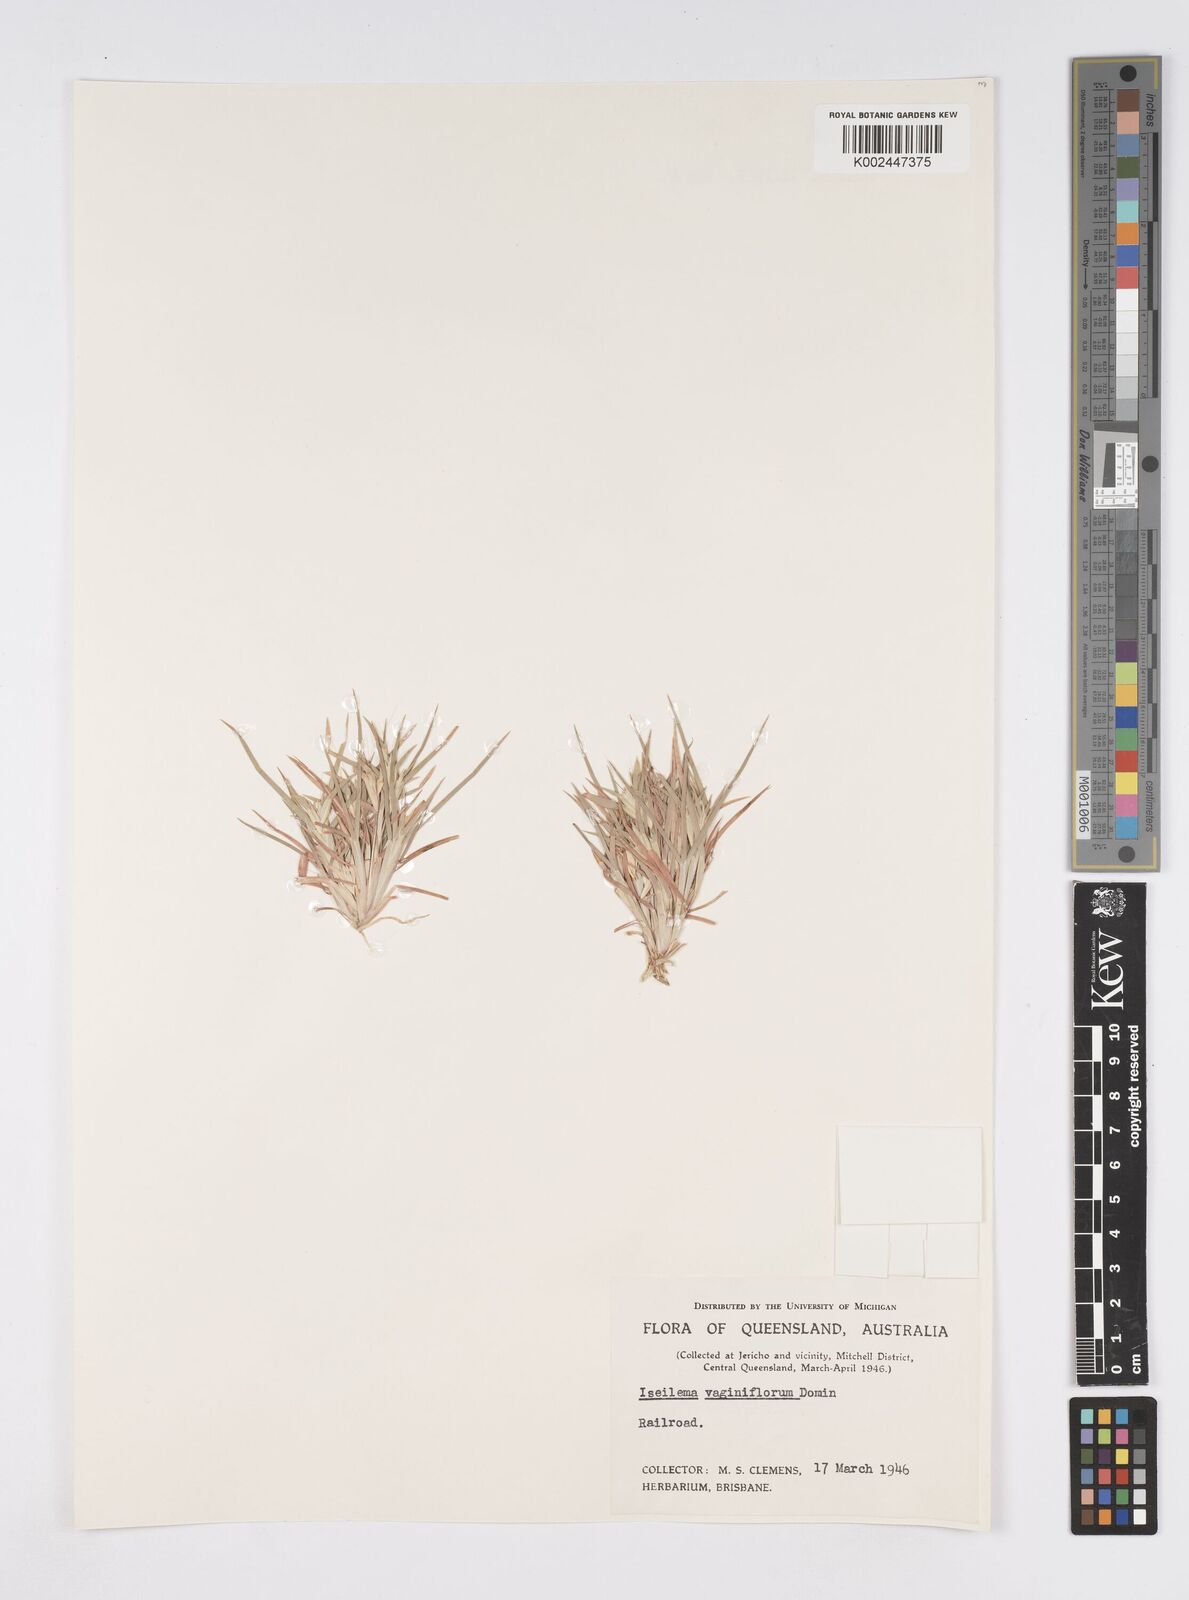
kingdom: Plantae
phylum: Tracheophyta
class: Liliopsida
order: Poales
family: Poaceae
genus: Iseilema
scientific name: Iseilema vaginiflorum
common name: Red flinders grass
